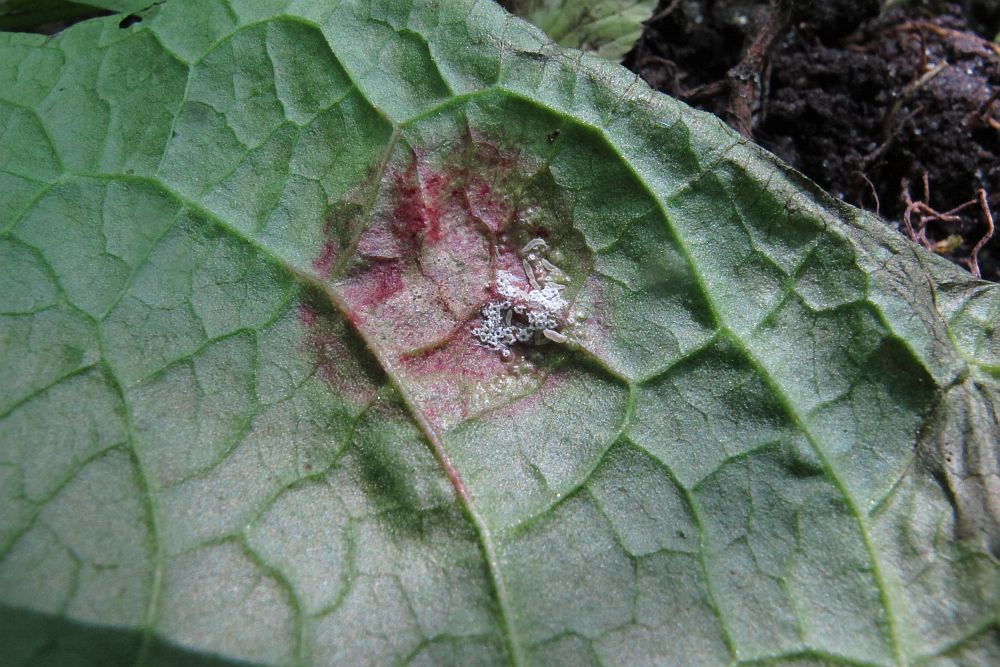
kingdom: Fungi
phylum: Basidiomycota
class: Pucciniomycetes
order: Pucciniales
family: Pucciniaceae
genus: Puccinia
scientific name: Puccinia phragmitis
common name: tagrør-tvecellerust
